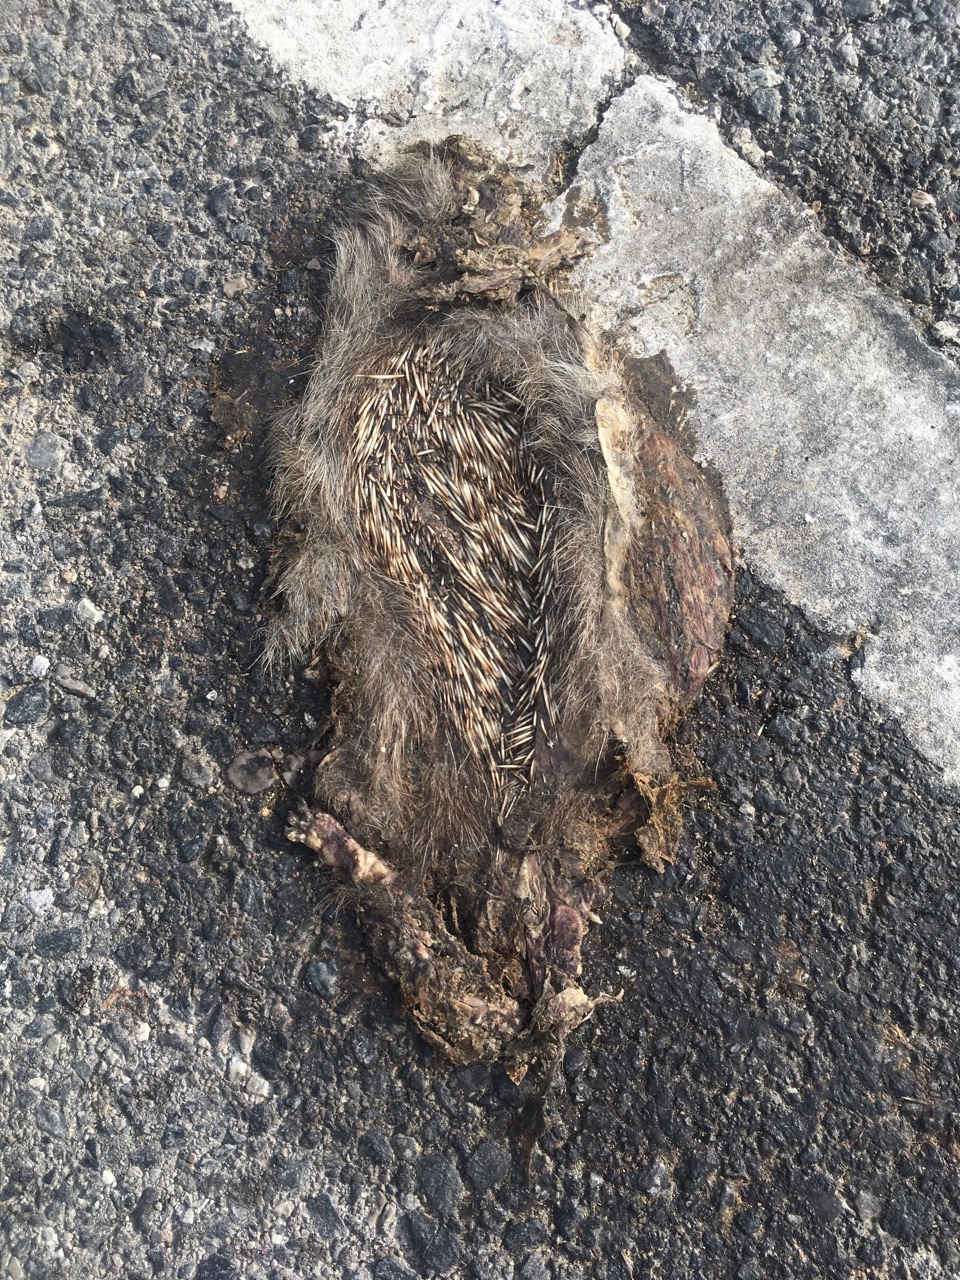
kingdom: Animalia
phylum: Chordata
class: Mammalia
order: Erinaceomorpha
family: Erinaceidae
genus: Erinaceus
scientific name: Erinaceus
